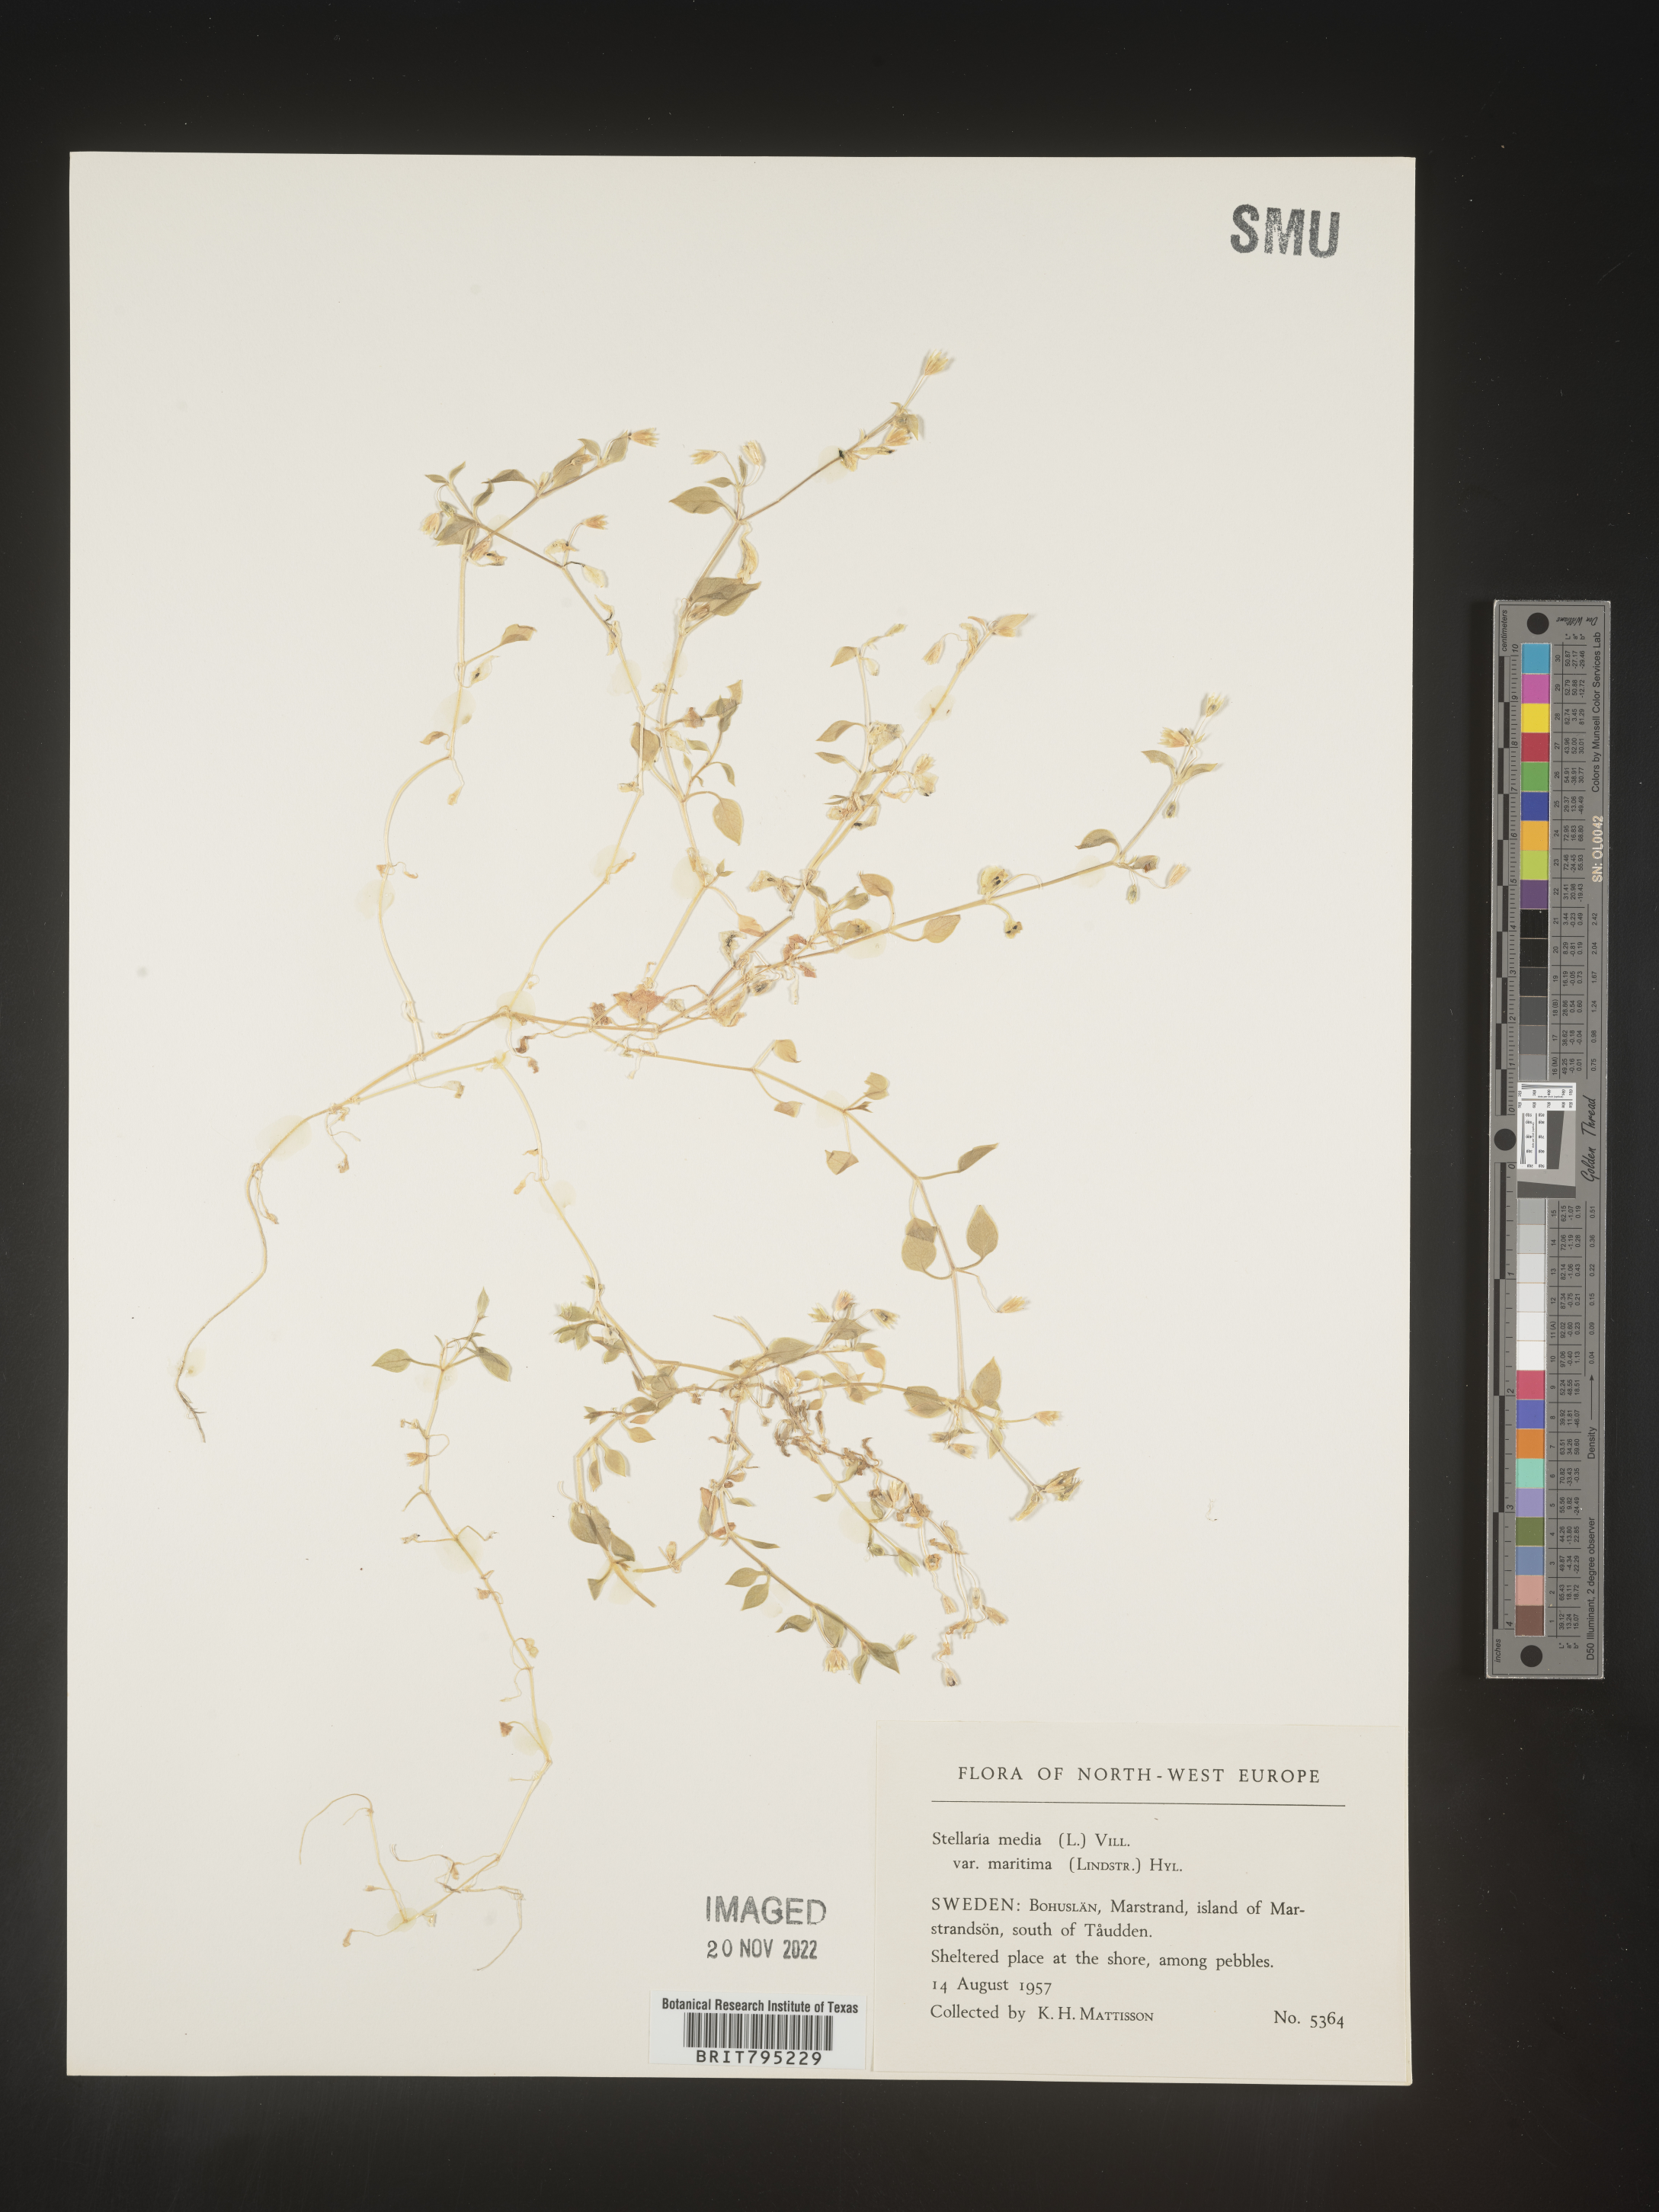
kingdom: Plantae
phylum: Tracheophyta
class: Magnoliopsida
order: Caryophyllales
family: Caryophyllaceae
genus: Stellaria
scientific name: Stellaria
